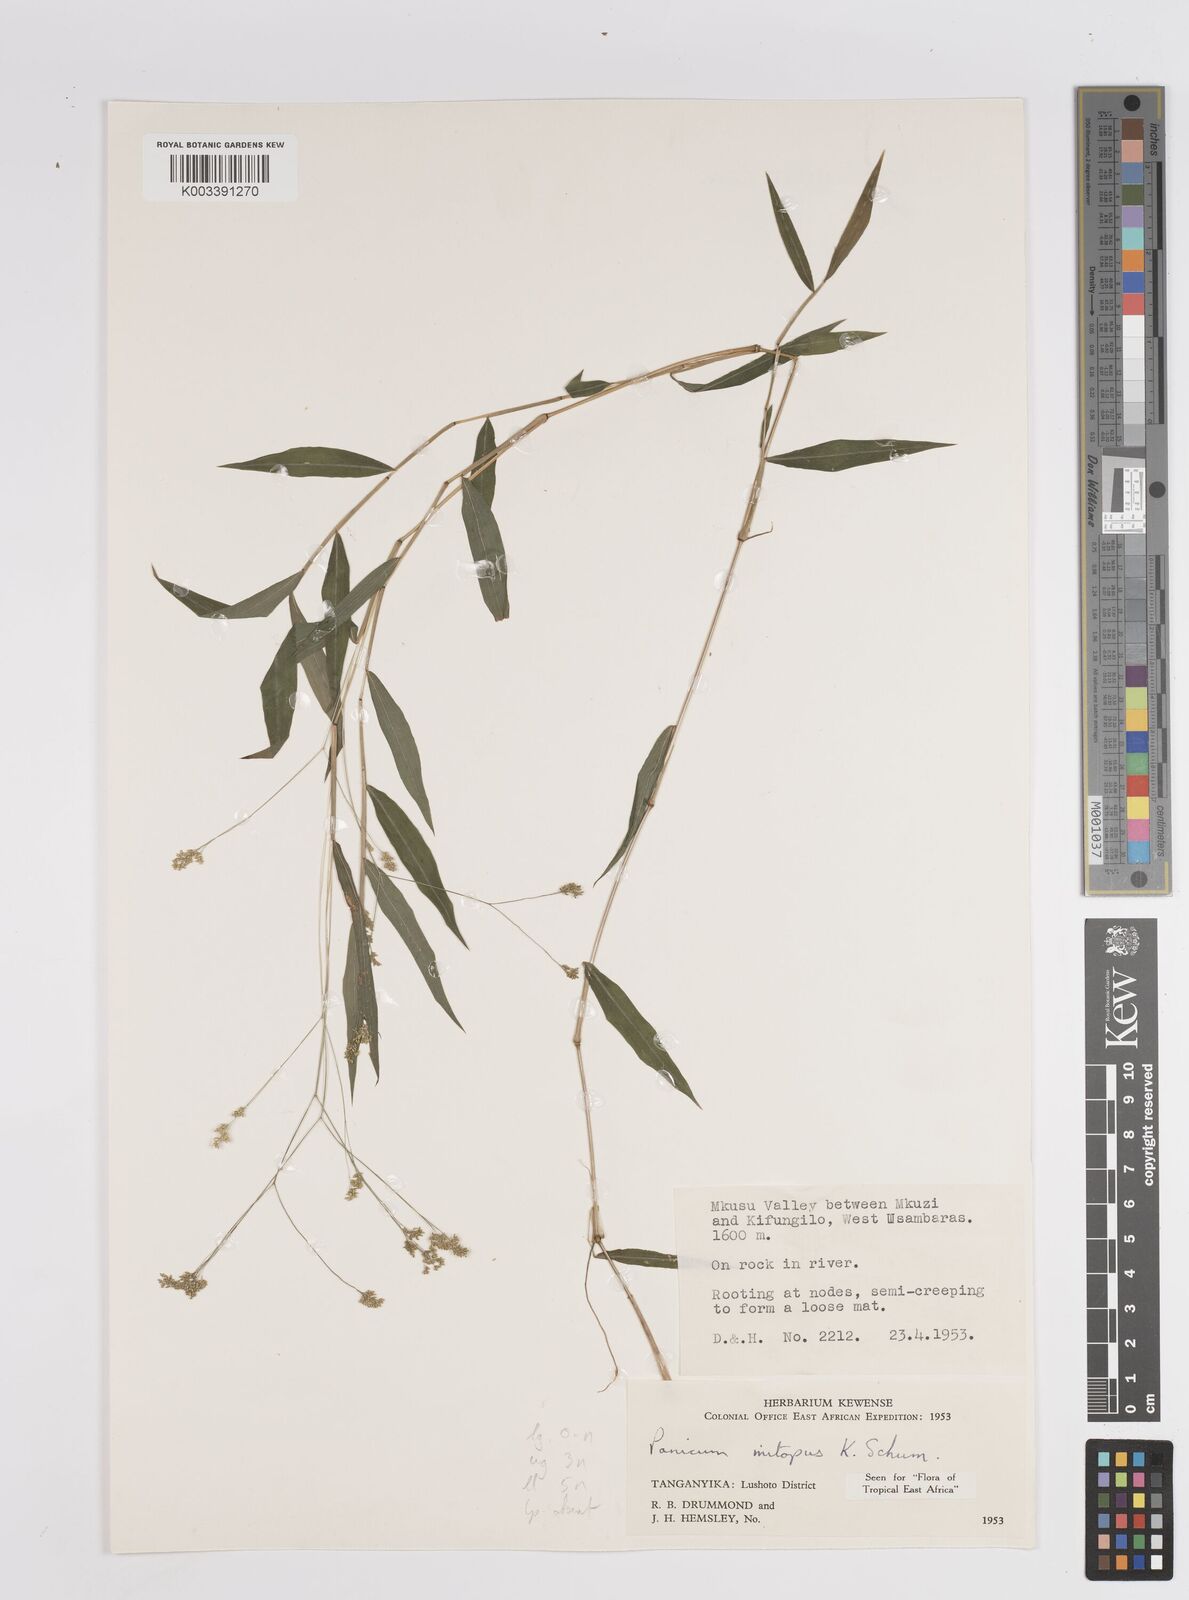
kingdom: Plantae
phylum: Tracheophyta
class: Liliopsida
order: Poales
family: Poaceae
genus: Panicum
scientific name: Panicum mitopus
